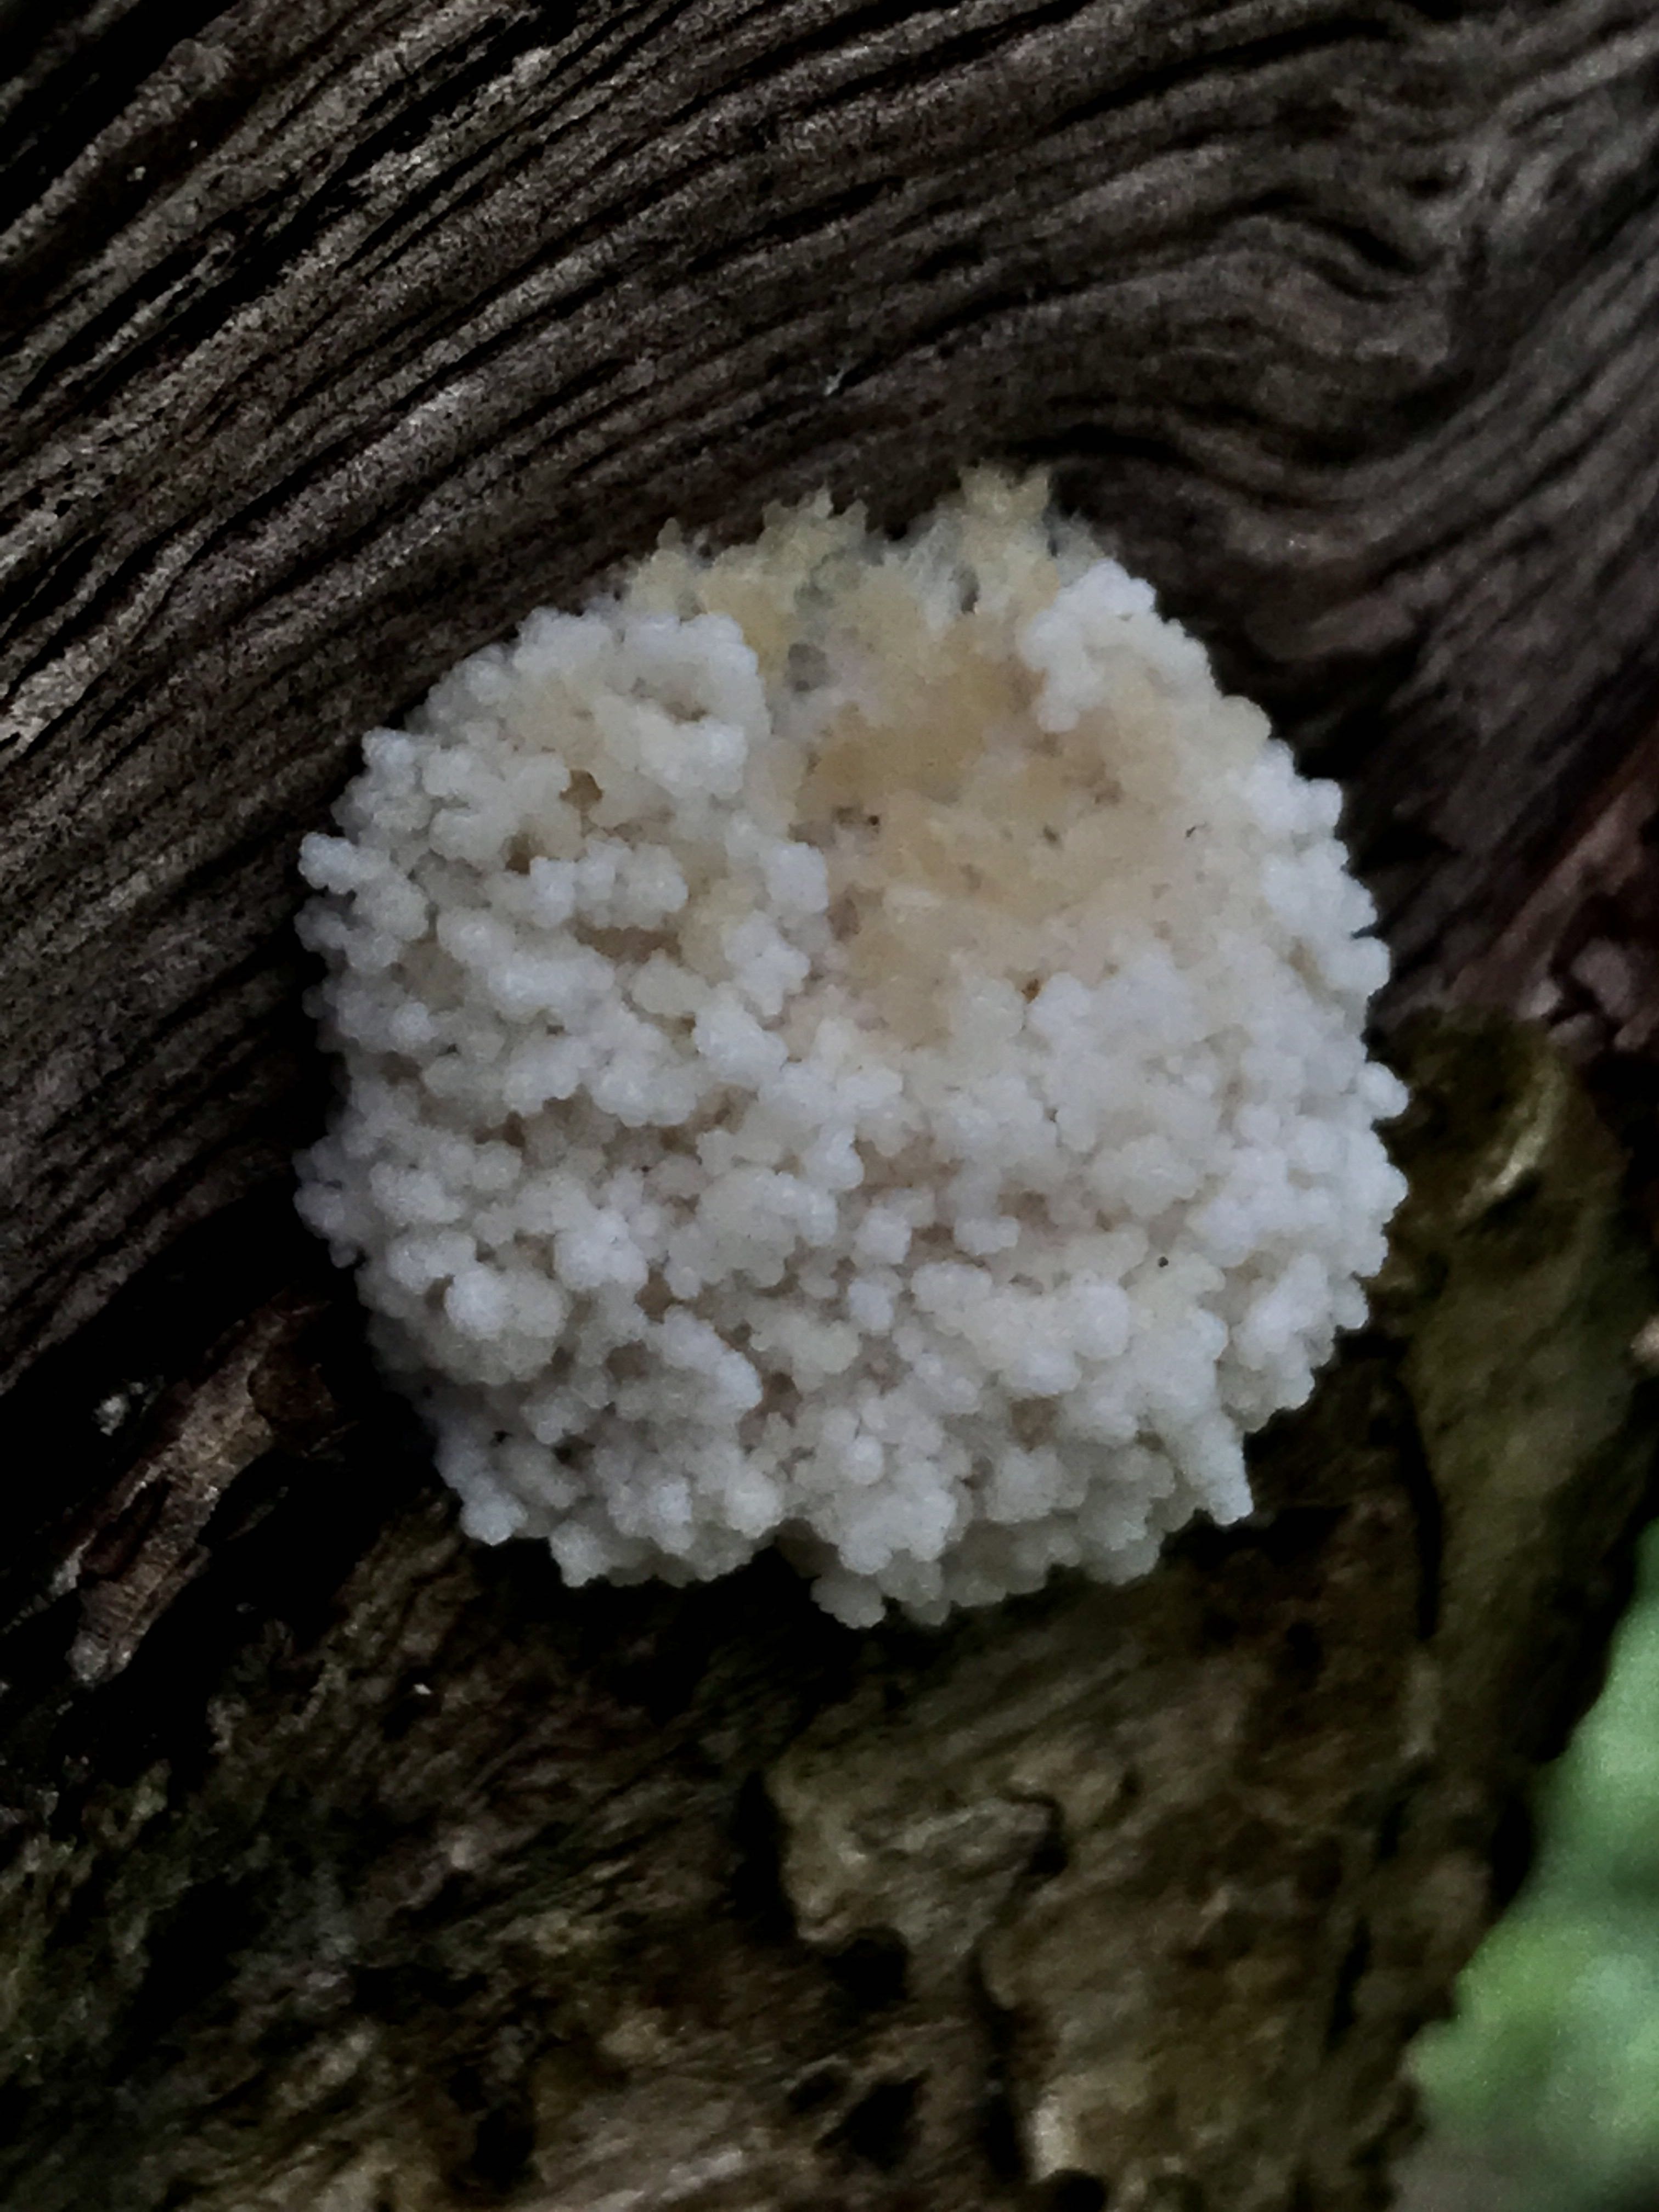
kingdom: Protozoa
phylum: Mycetozoa
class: Myxomycetes
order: Cribrariales
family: Tubiferaceae
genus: Reticularia
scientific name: Reticularia lycoperdon
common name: skinnende støvpude
